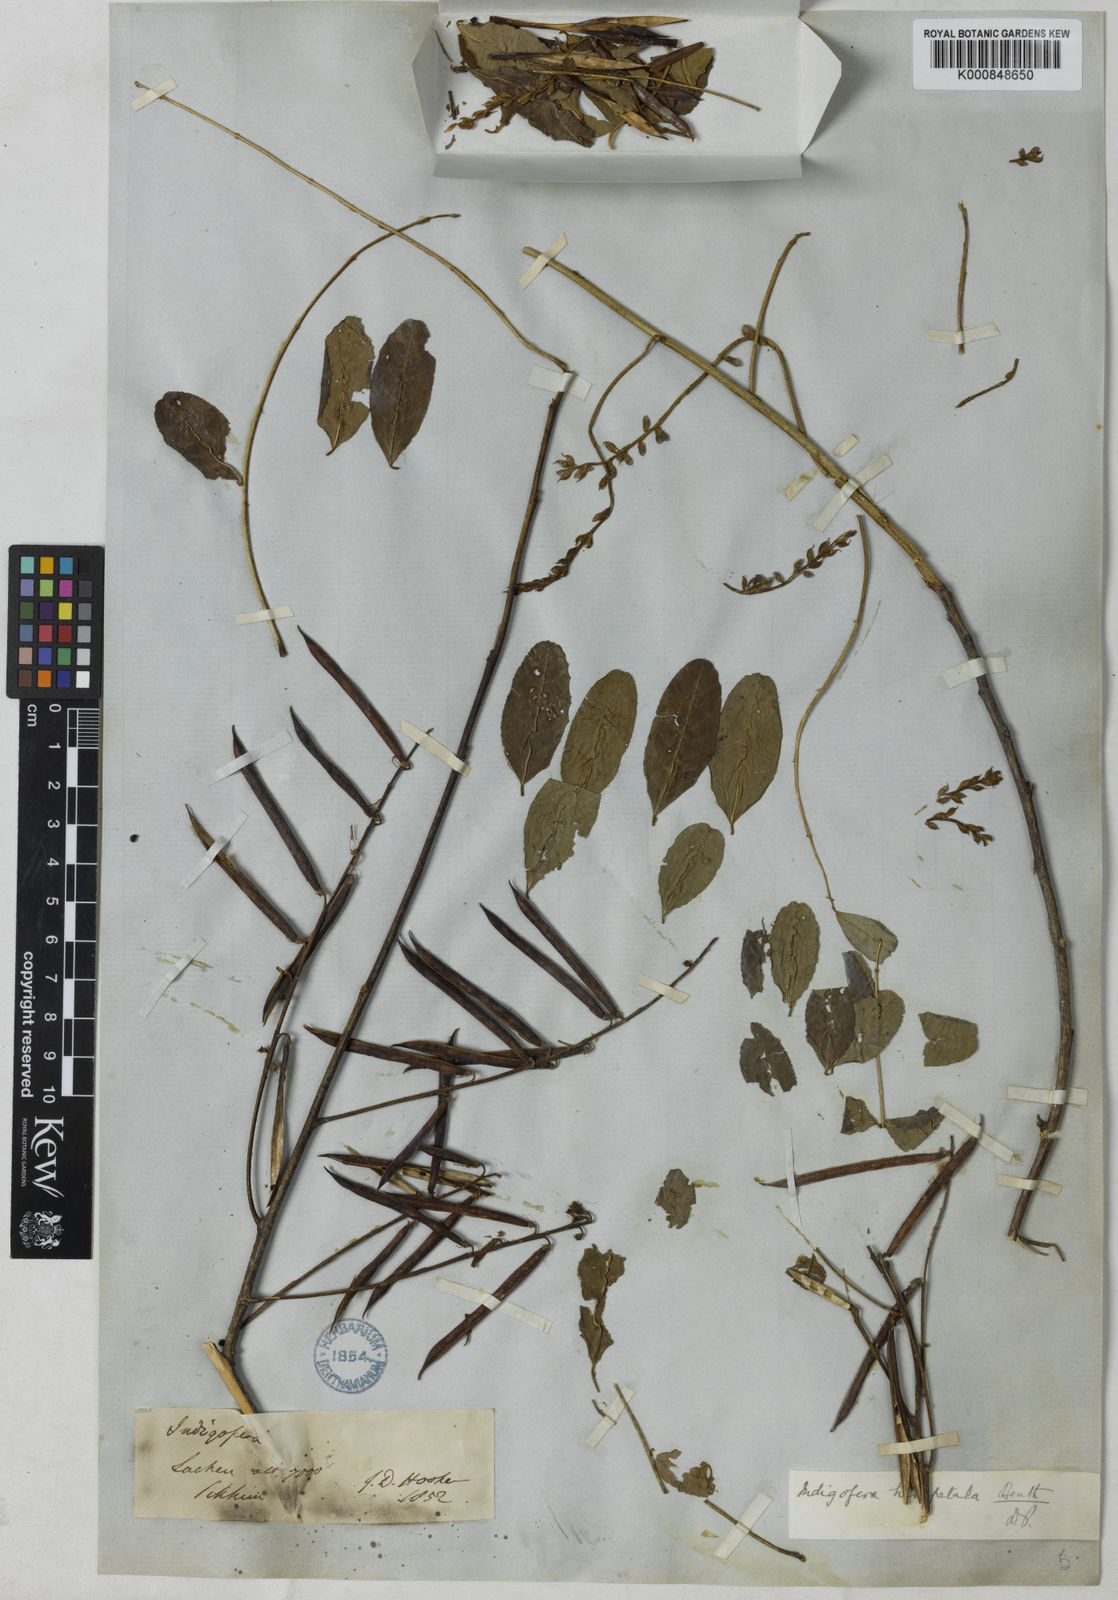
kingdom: Plantae
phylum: Tracheophyta
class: Magnoliopsida
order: Fabales
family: Fabaceae
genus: Indigofera
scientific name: Indigofera bracteata
